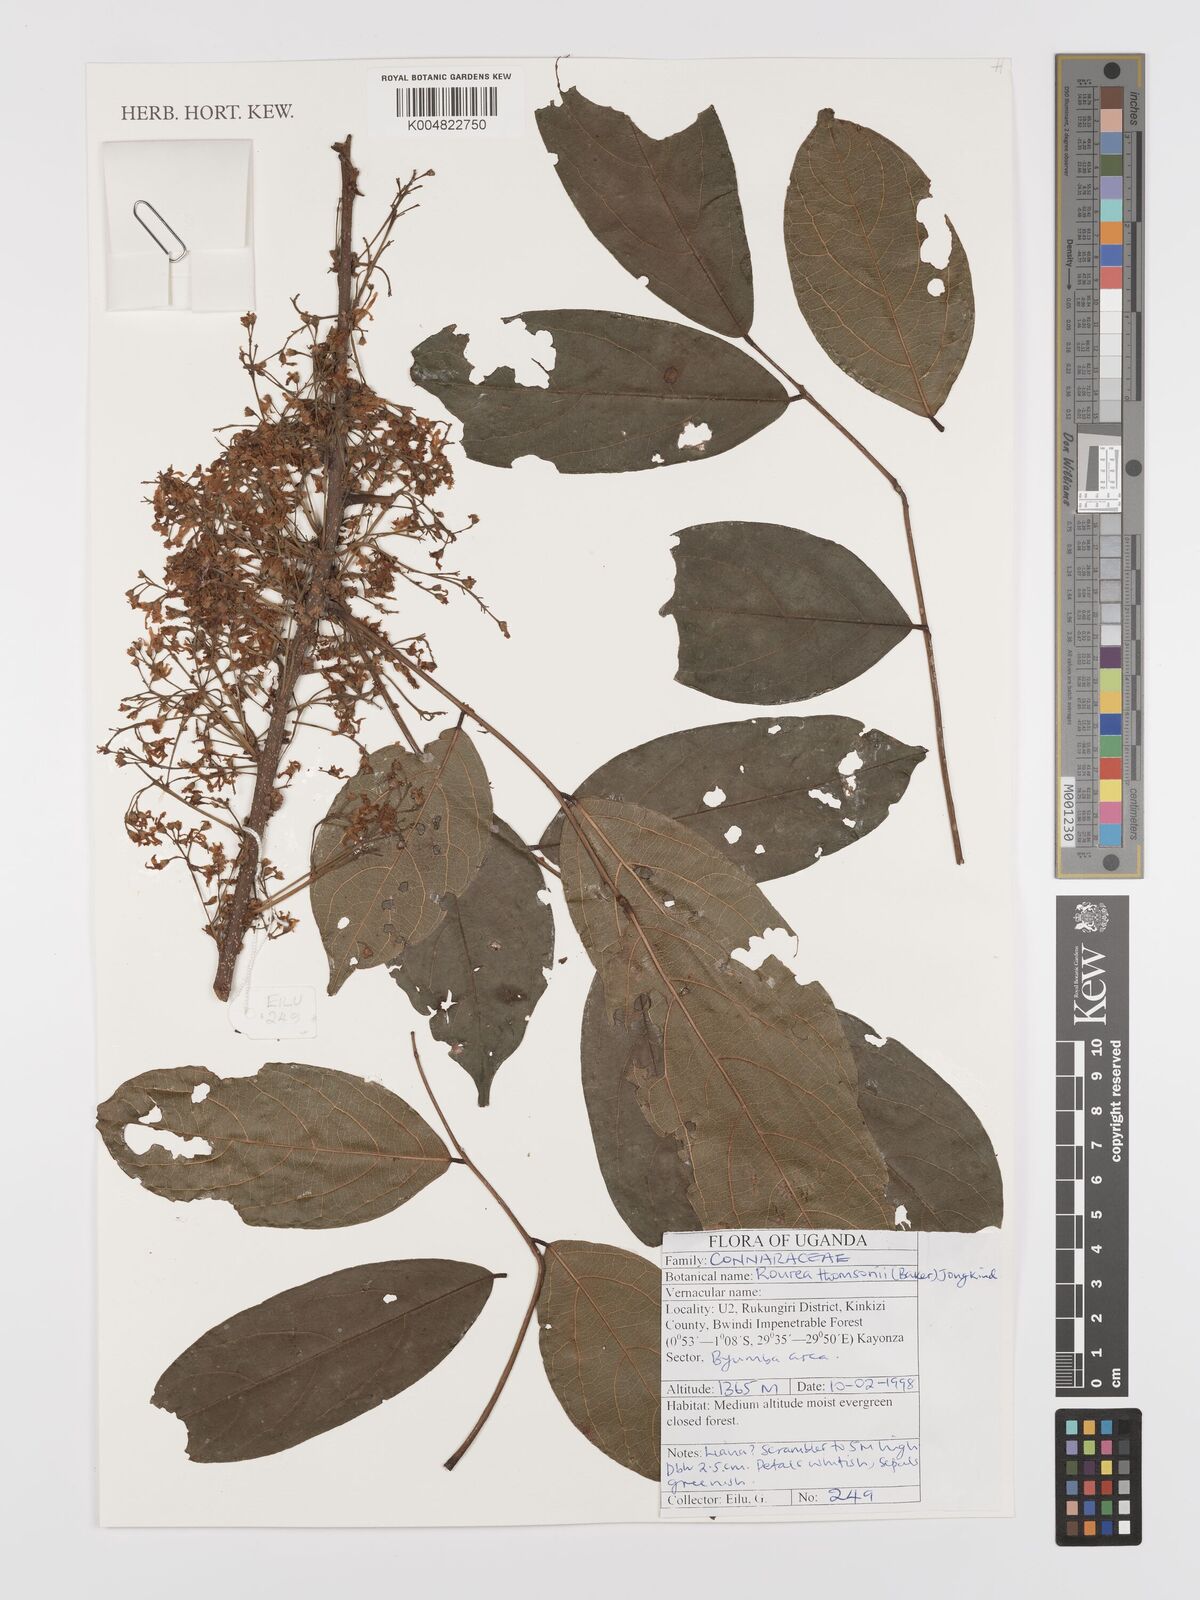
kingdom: Plantae
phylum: Tracheophyta
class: Magnoliopsida
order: Oxalidales
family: Connaraceae
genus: Rourea
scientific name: Rourea thomsonii
